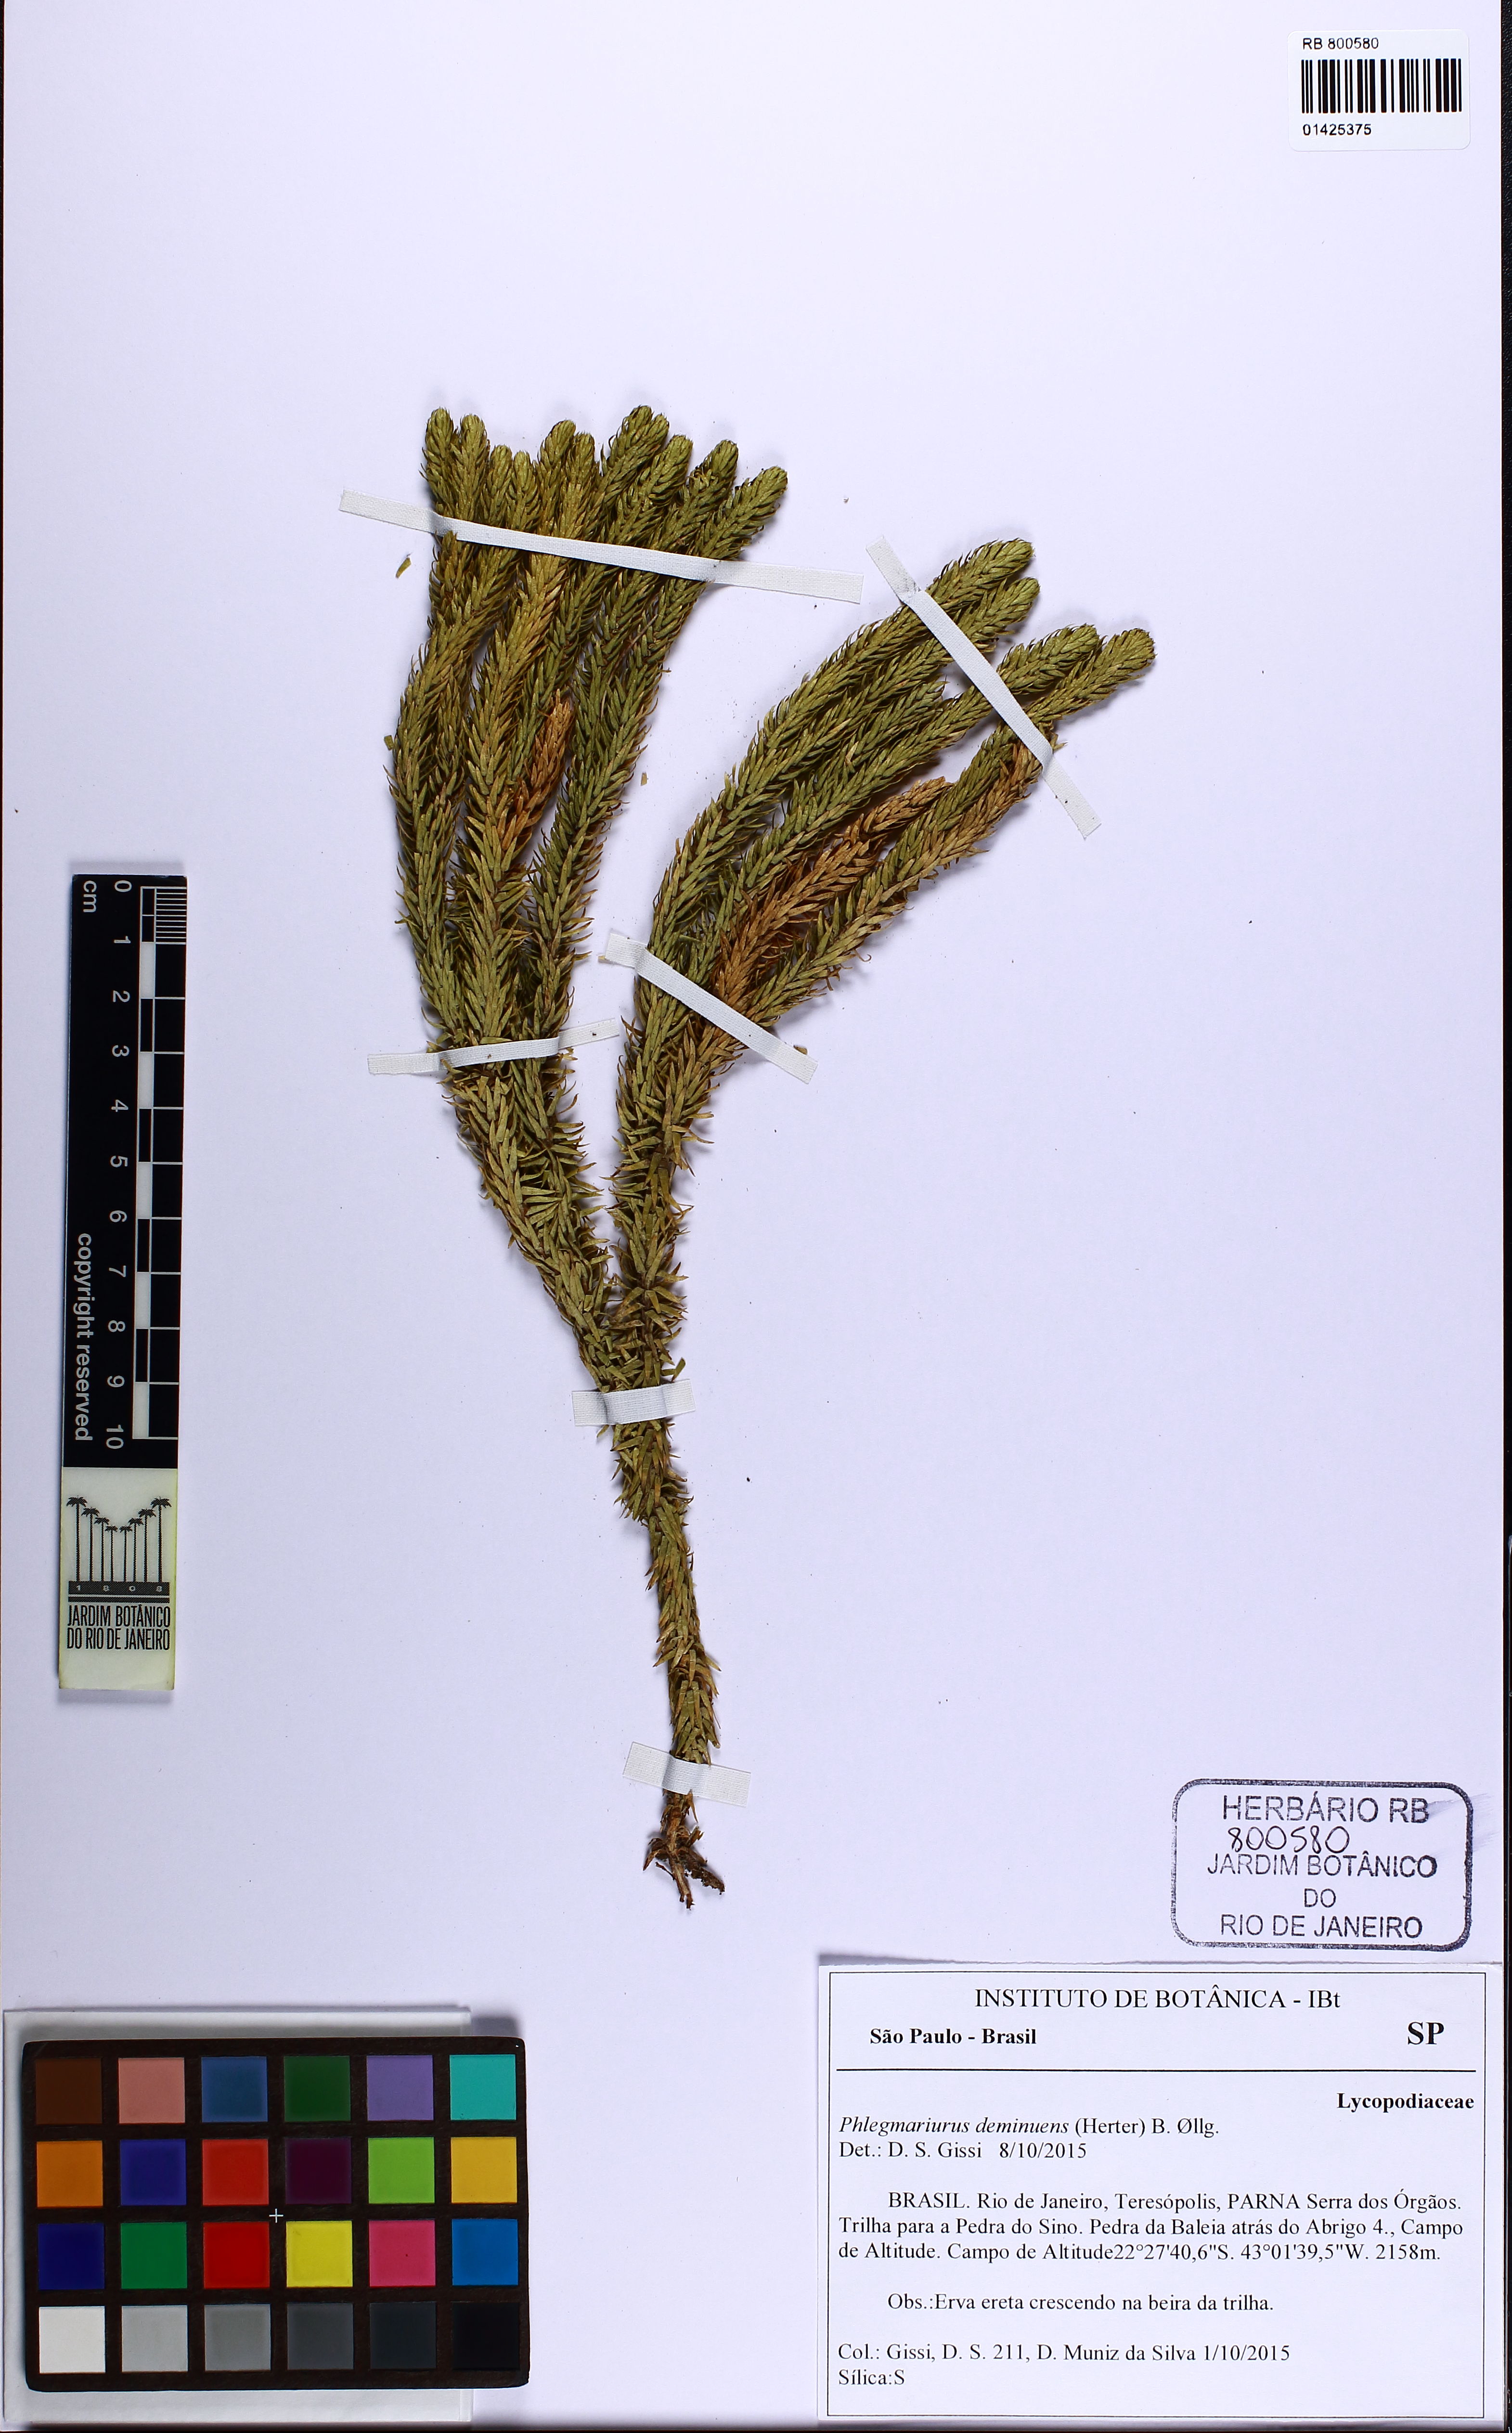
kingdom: Plantae
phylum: Tracheophyta
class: Lycopodiopsida
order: Lycopodiales
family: Lycopodiaceae
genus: Phlegmariurus
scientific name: Phlegmariurus deminuens
